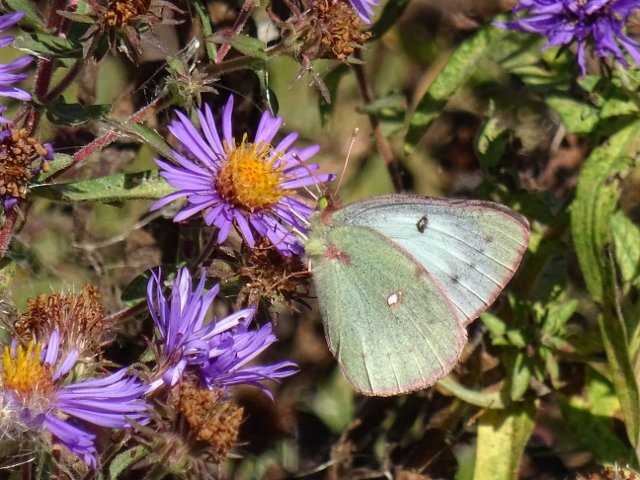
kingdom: Animalia
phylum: Arthropoda
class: Insecta
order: Lepidoptera
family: Pieridae
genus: Colias
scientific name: Colias philodice
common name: Clouded Sulphur
